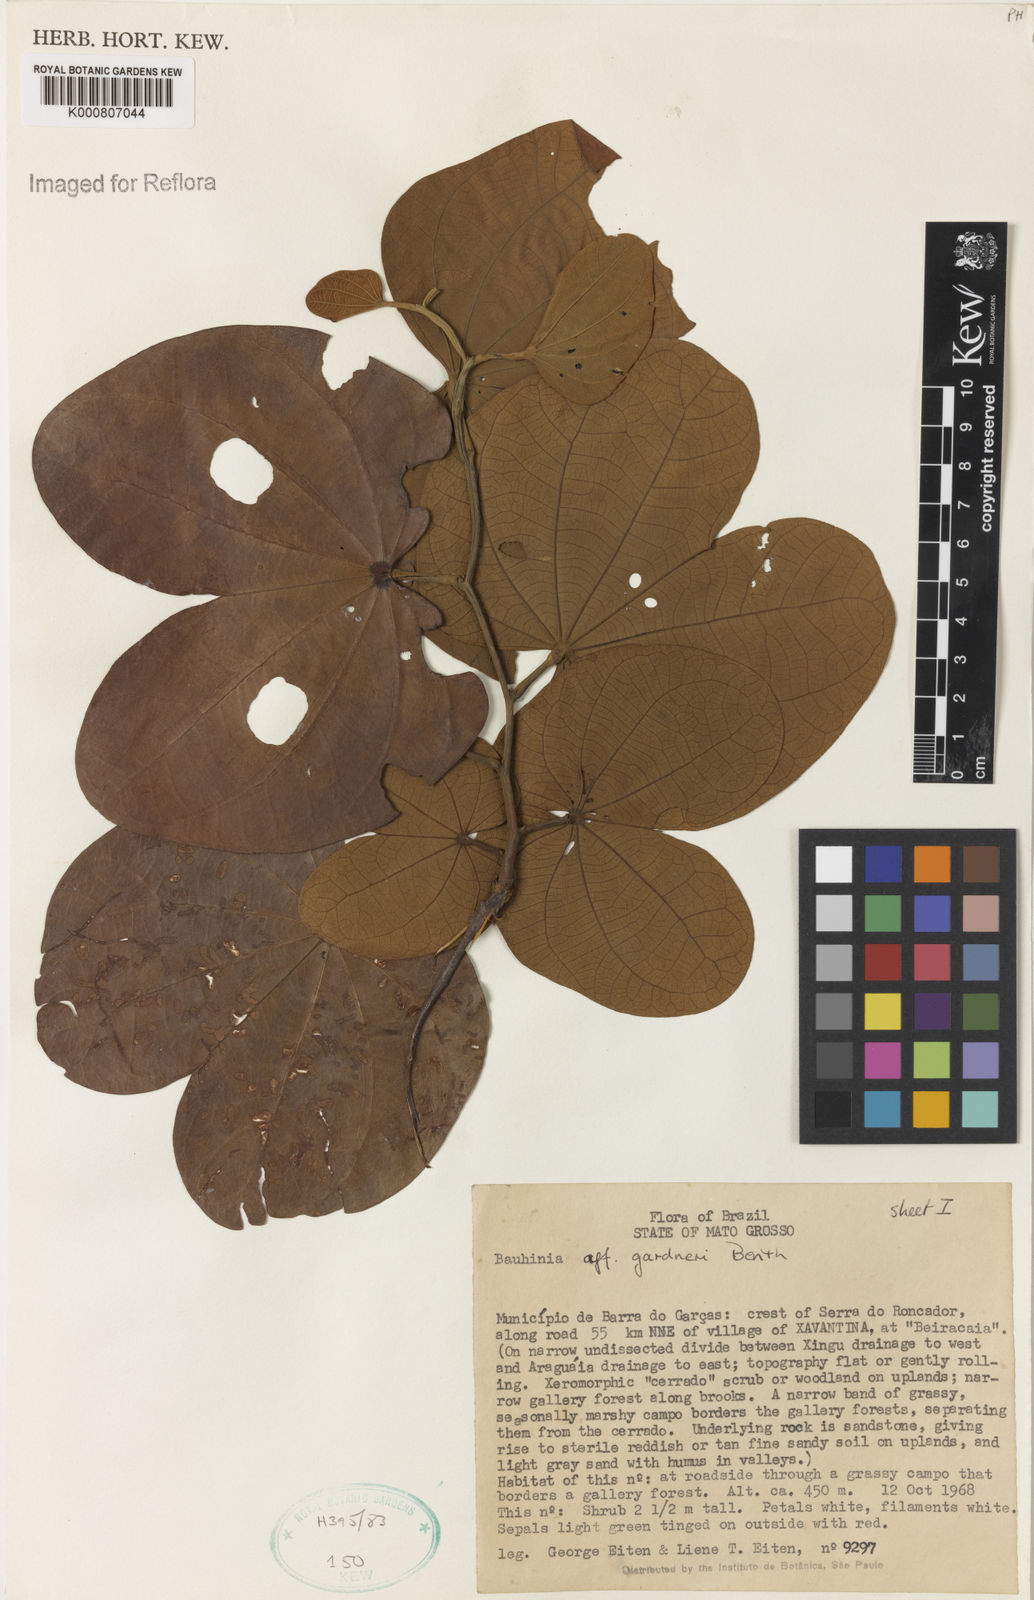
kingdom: Plantae
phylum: Tracheophyta
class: Magnoliopsida
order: Fabales
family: Fabaceae
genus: Bauhinia
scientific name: Bauhinia gardneri
